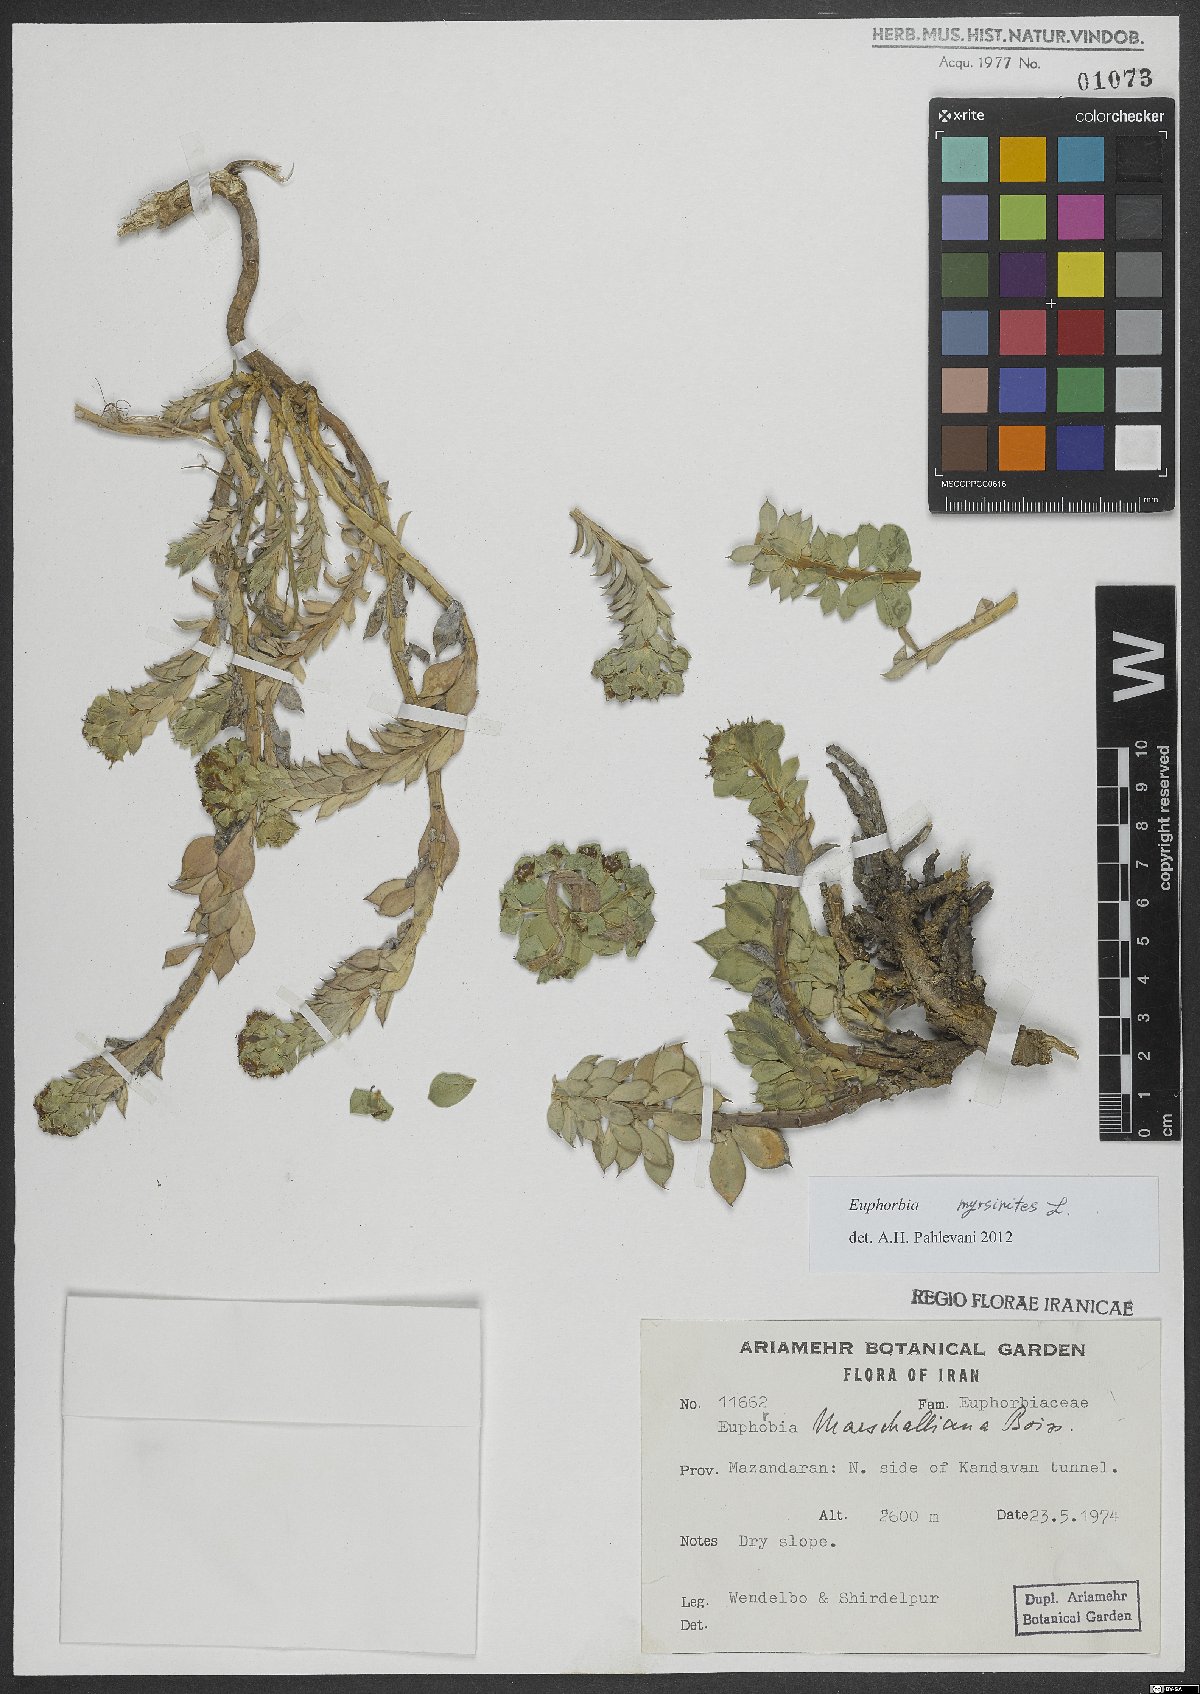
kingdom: Plantae
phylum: Tracheophyta
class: Magnoliopsida
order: Malpighiales
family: Euphorbiaceae
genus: Euphorbia
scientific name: Euphorbia myrsinites
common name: Myrtle spurge
